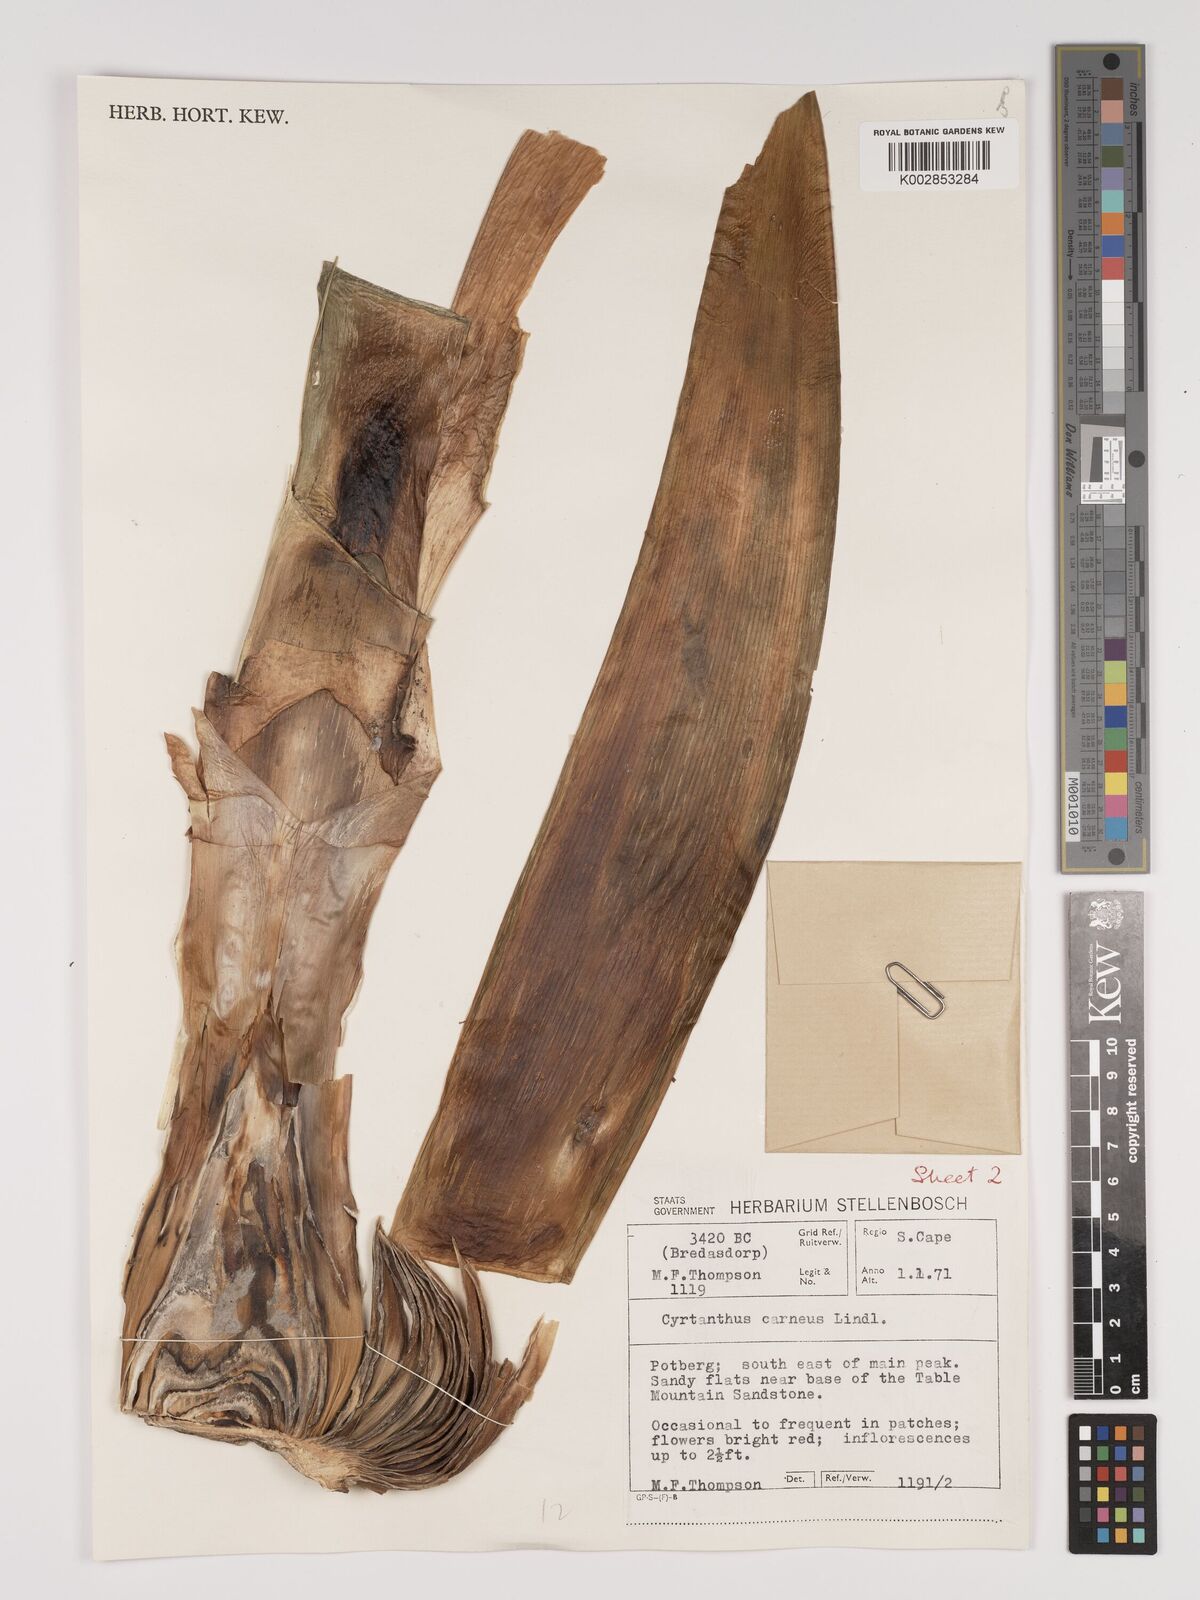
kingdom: Plantae
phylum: Tracheophyta
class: Liliopsida
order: Asparagales
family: Amaryllidaceae
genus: Cyrtanthus
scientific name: Cyrtanthus carneus
